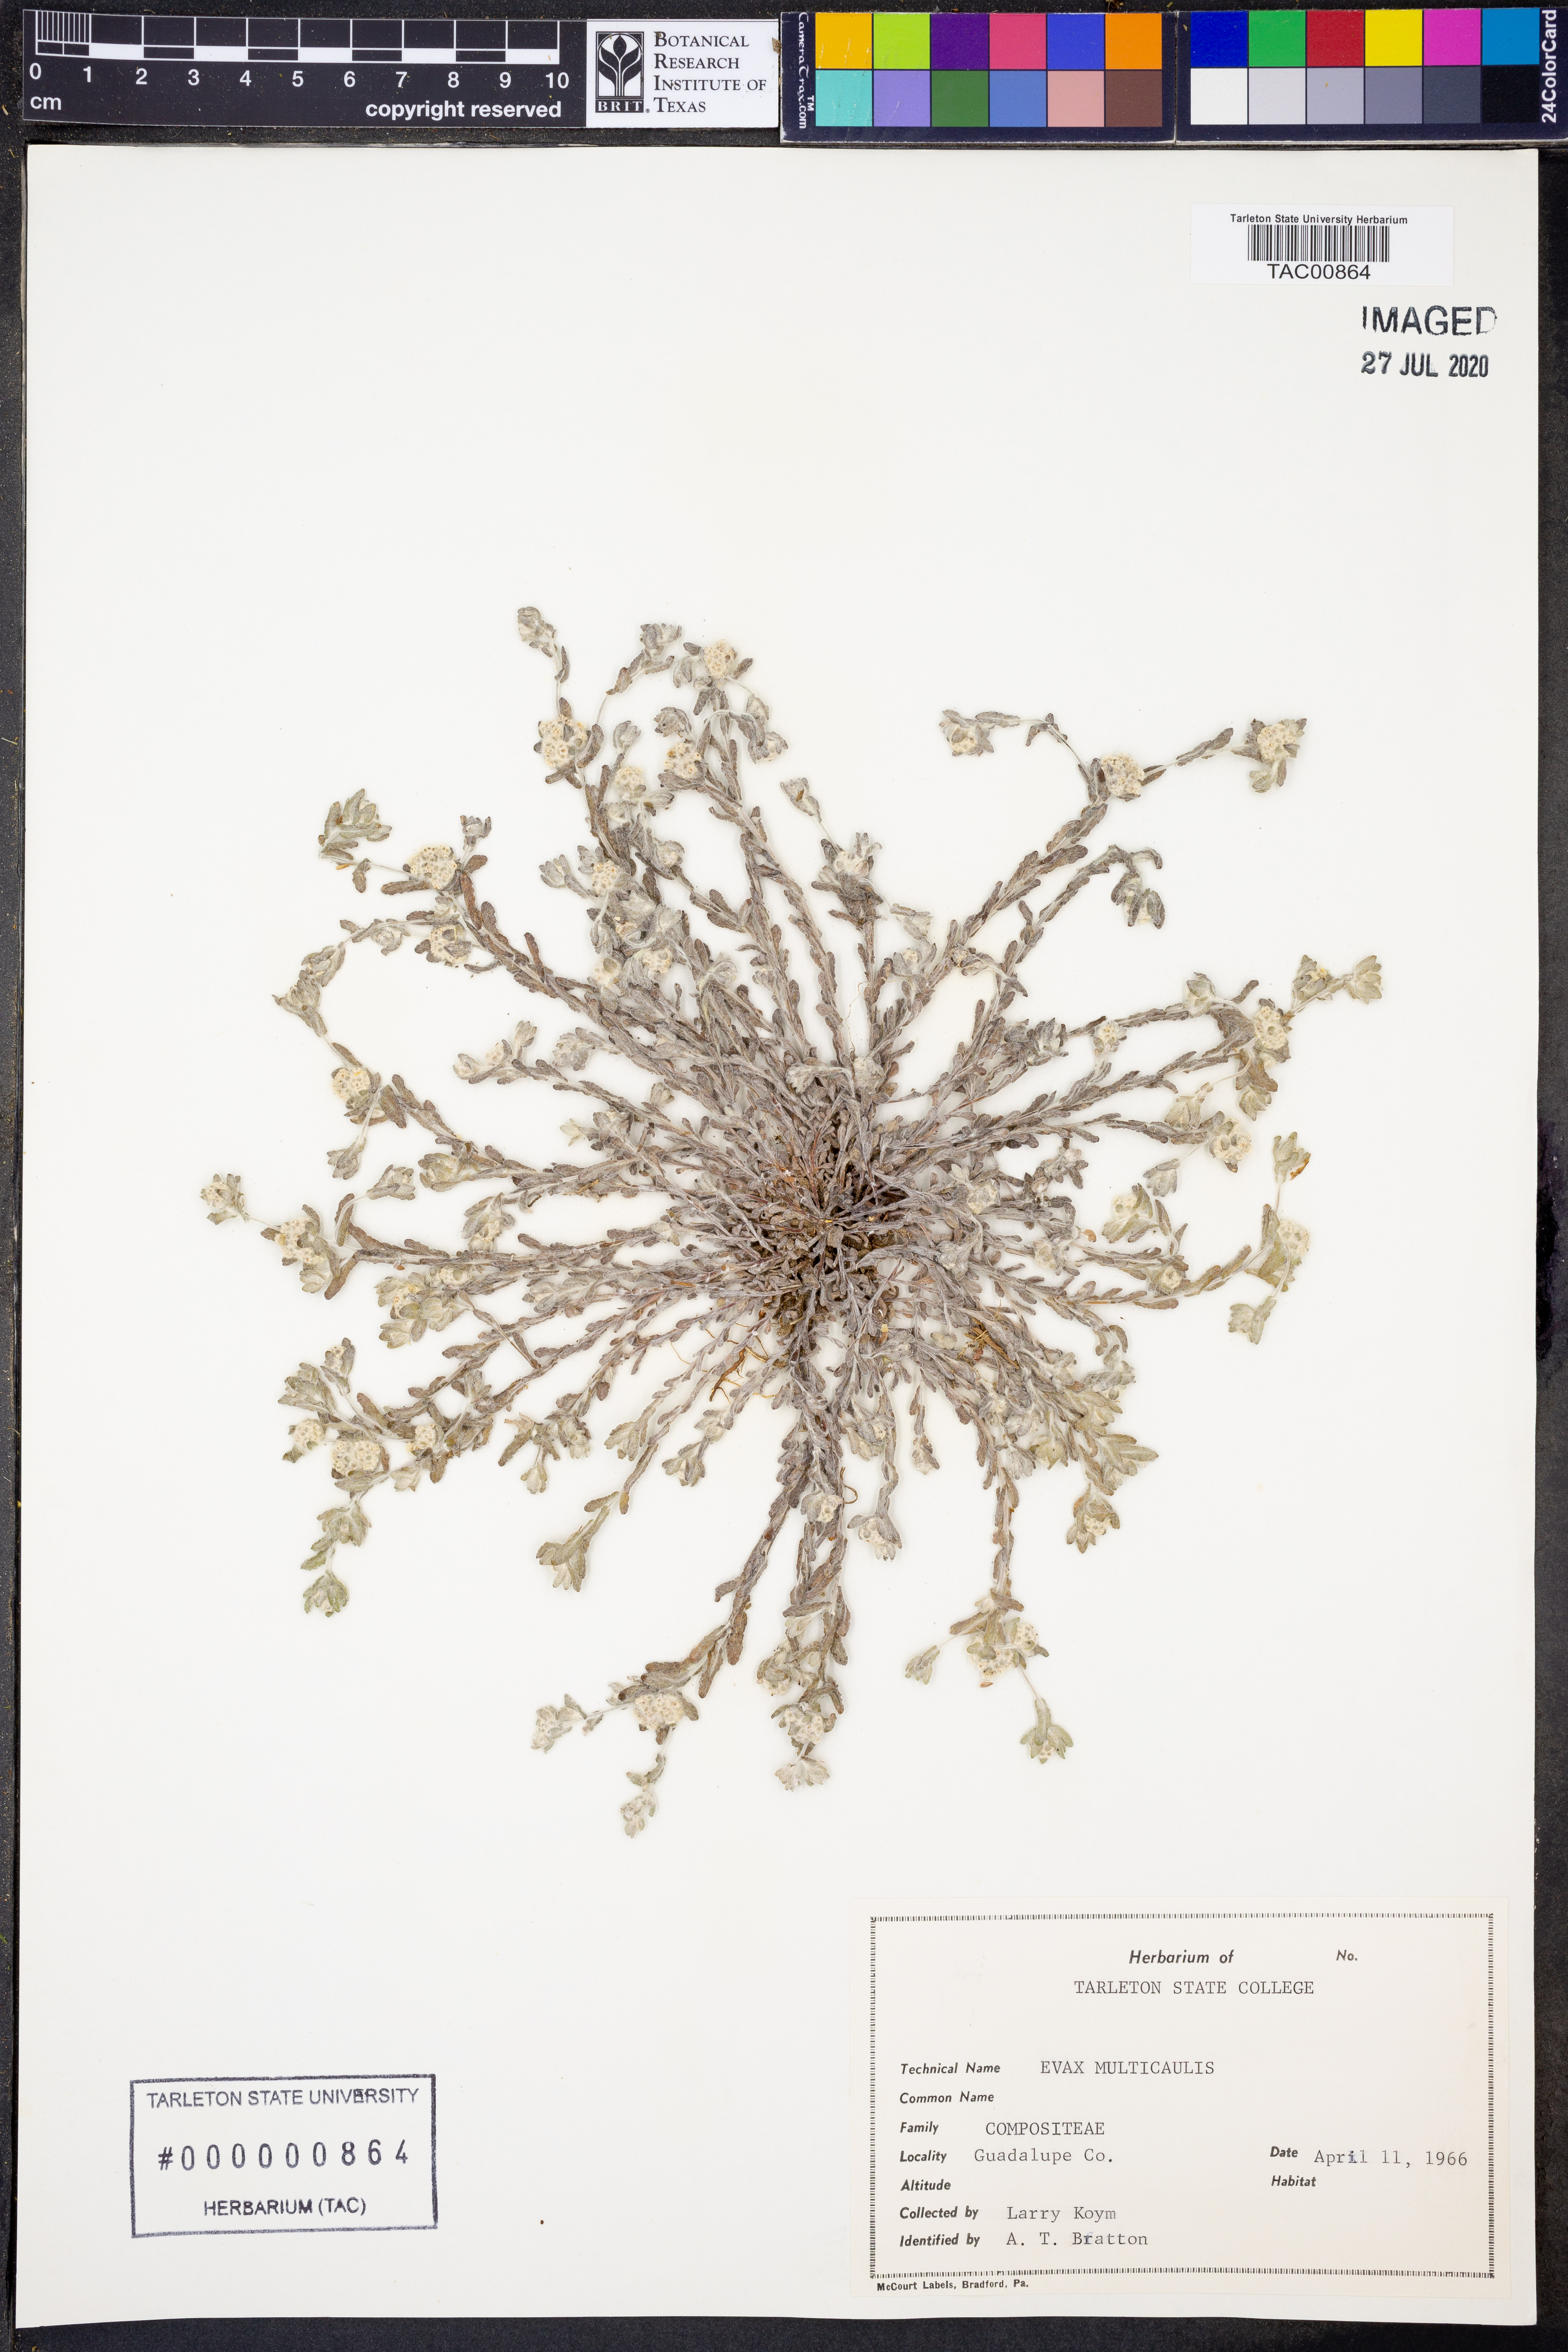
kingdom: Plantae
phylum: Tracheophyta
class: Magnoliopsida
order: Asterales
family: Asteraceae
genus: Diaperia
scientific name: Diaperia verna
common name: Many-stem rabbit-tobacco
